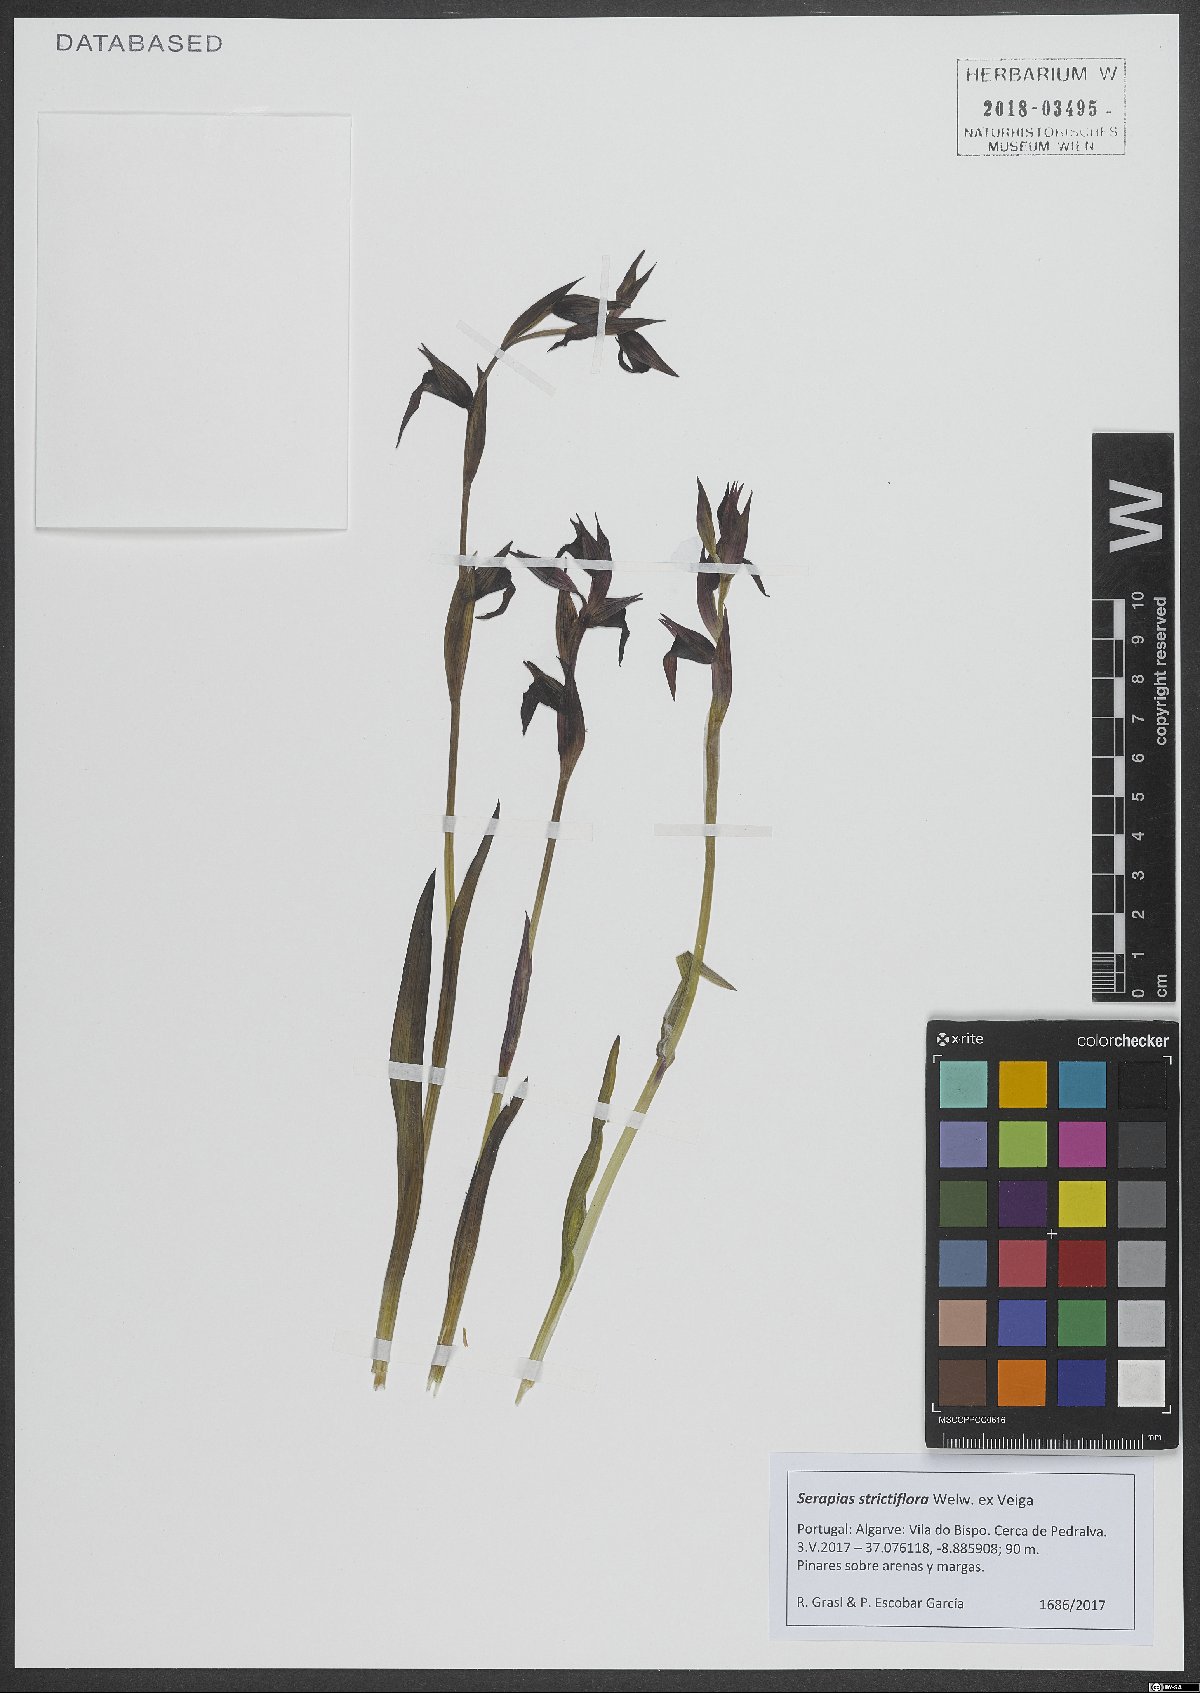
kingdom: Plantae
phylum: Tracheophyta
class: Liliopsida
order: Asparagales
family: Orchidaceae
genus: Serapias
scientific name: Serapias strictiflora
